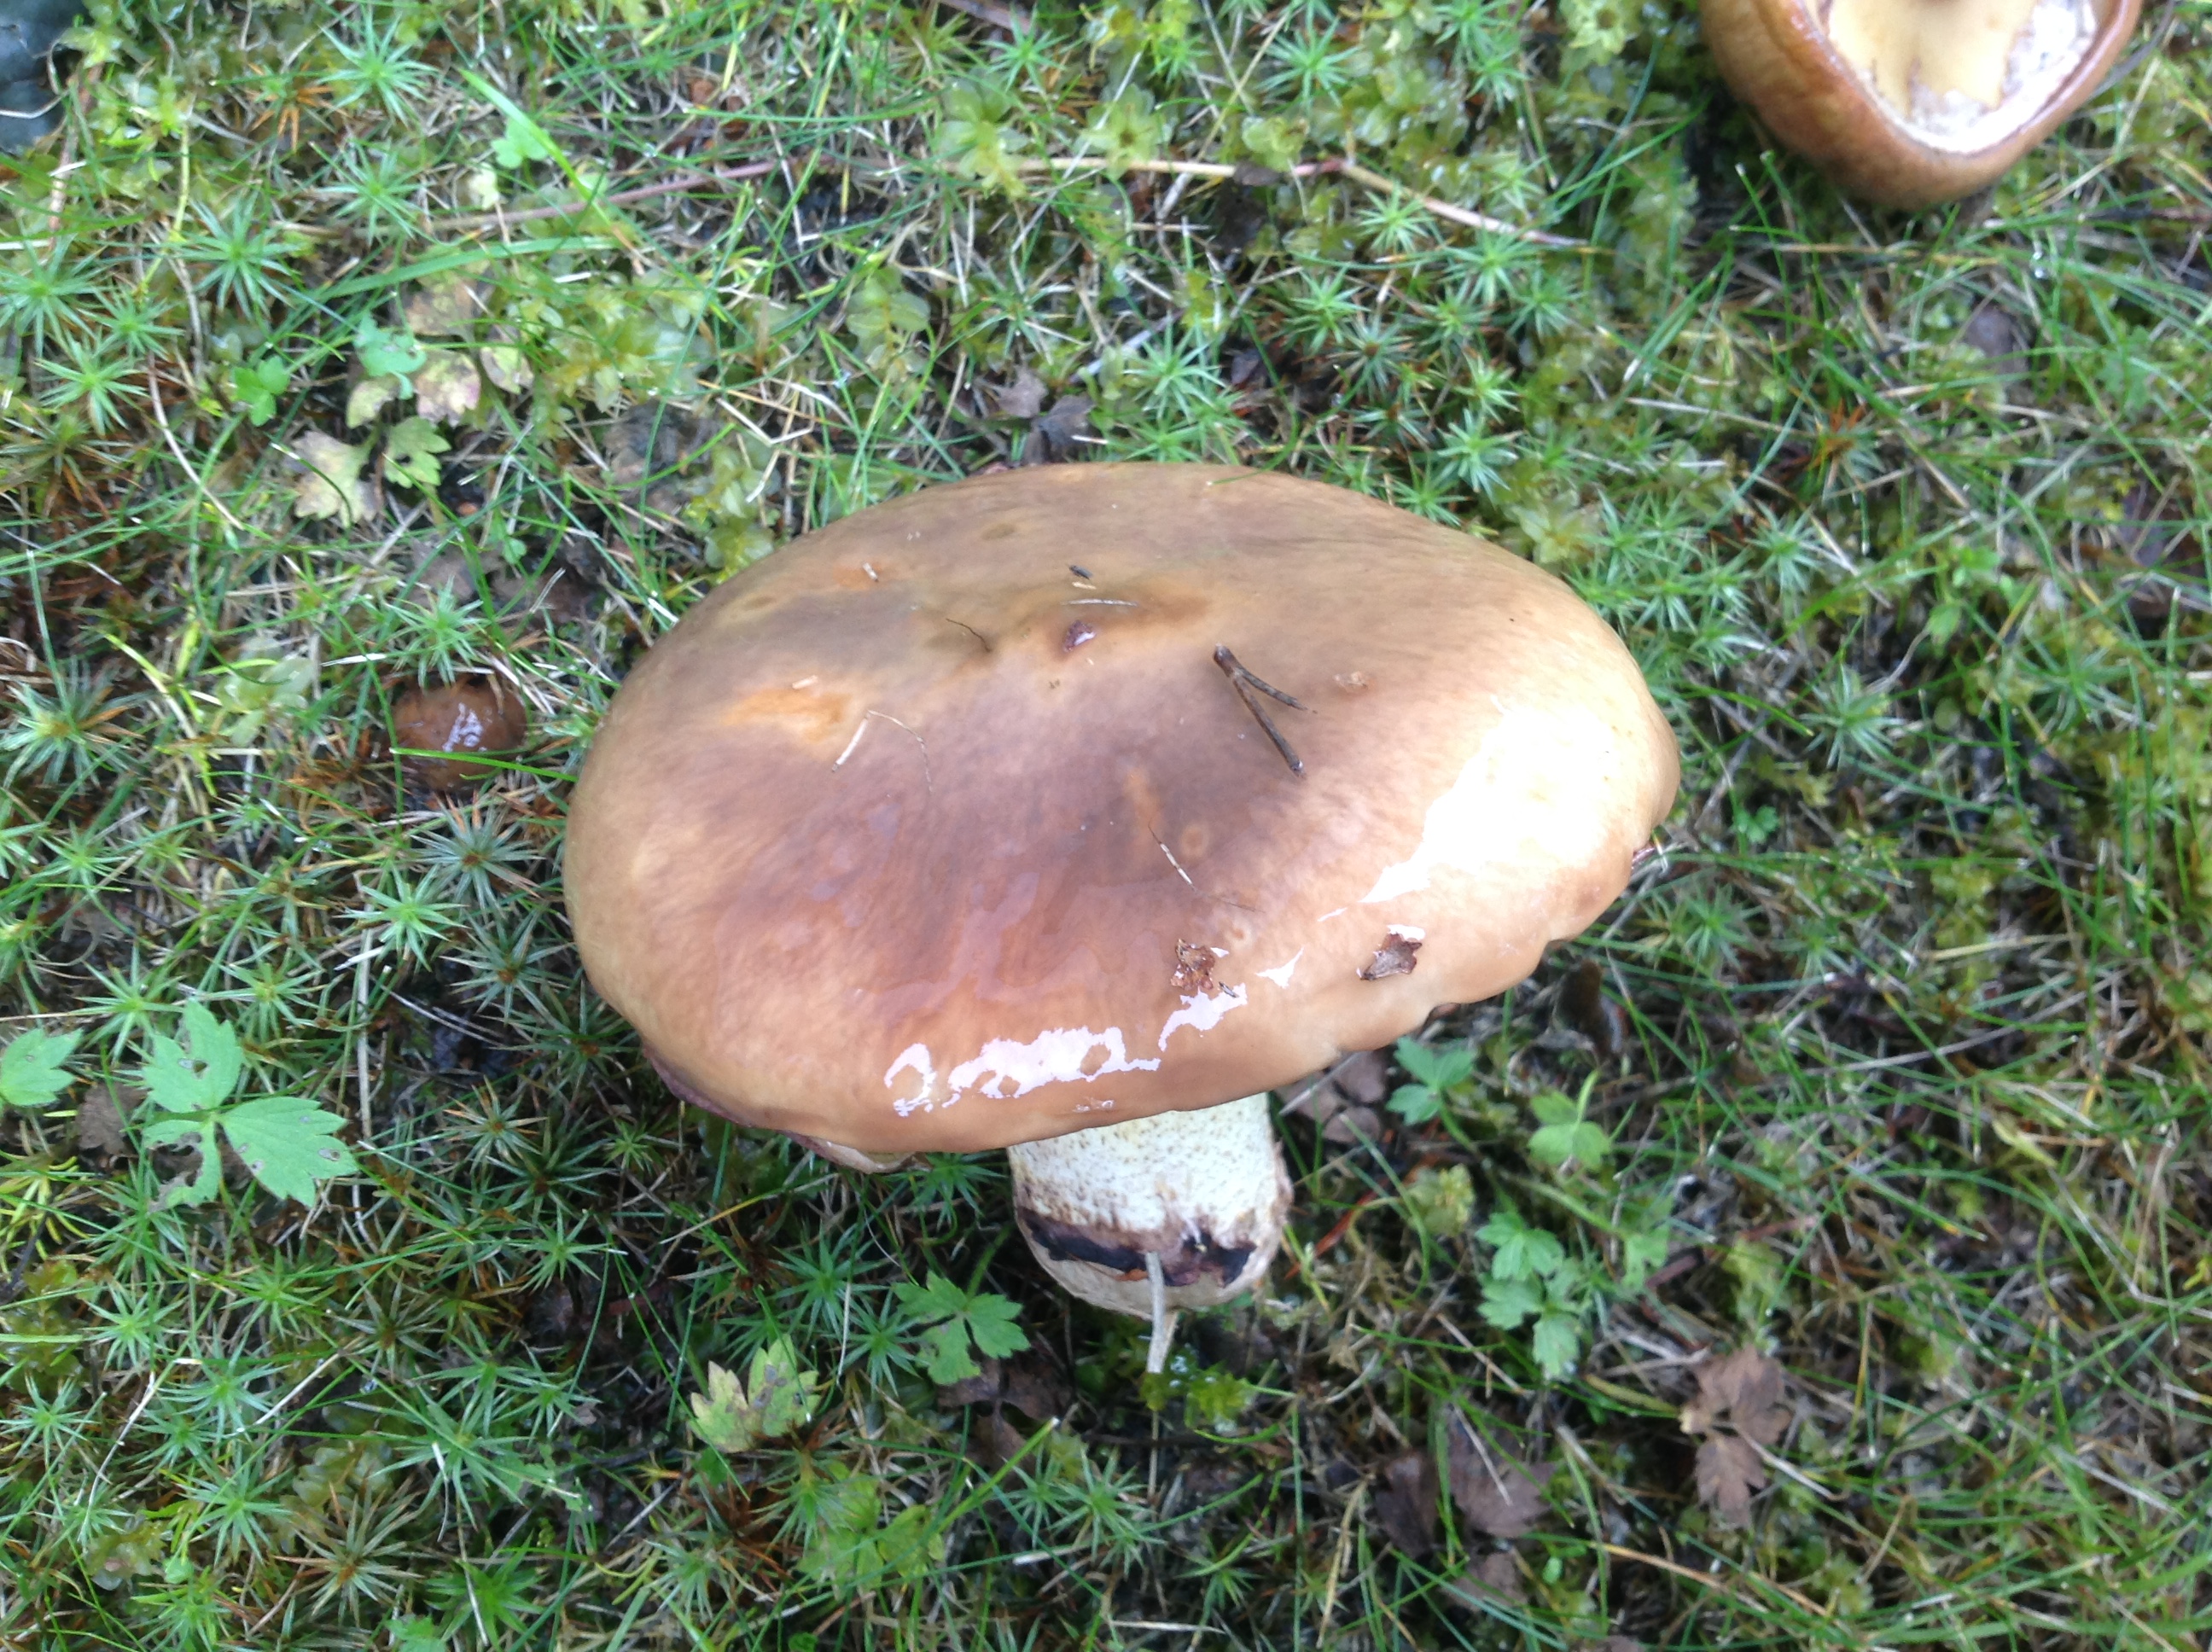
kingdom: Fungi
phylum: Basidiomycota
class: Agaricomycetes
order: Boletales
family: Suillaceae
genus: Suillus
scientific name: Suillus luteus
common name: Slippery jack
